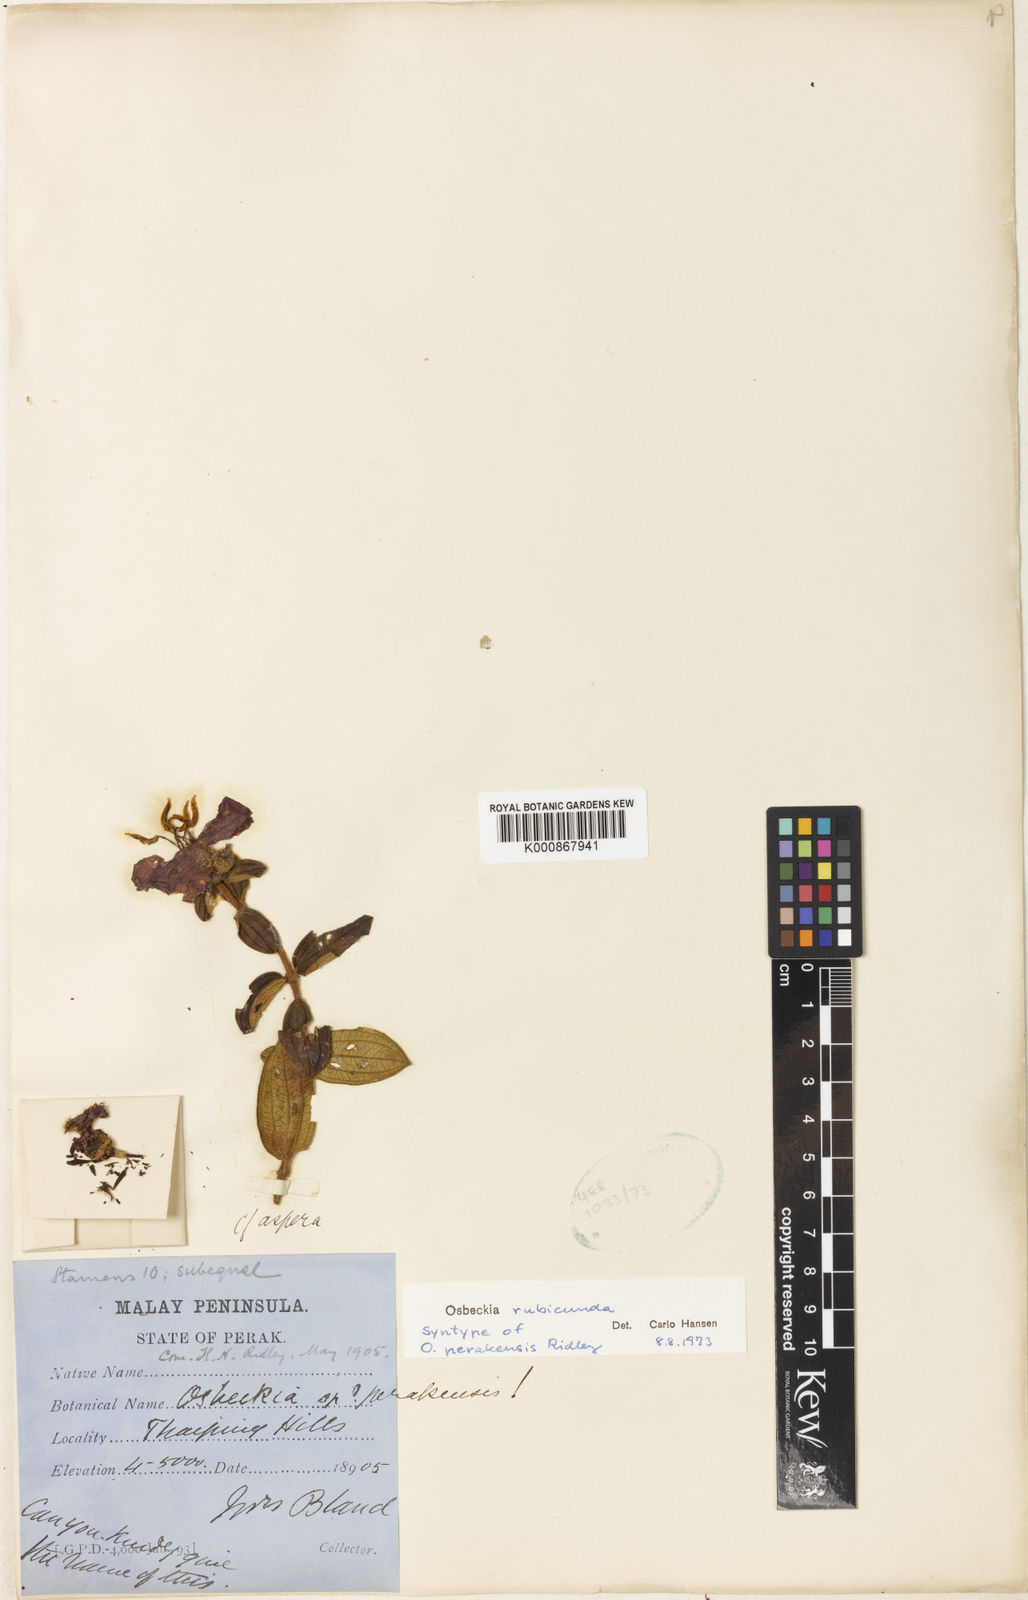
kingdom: Plantae
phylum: Tracheophyta
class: Magnoliopsida
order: Myrtales
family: Melastomataceae
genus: Osbeckia
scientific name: Osbeckia rubicunda
